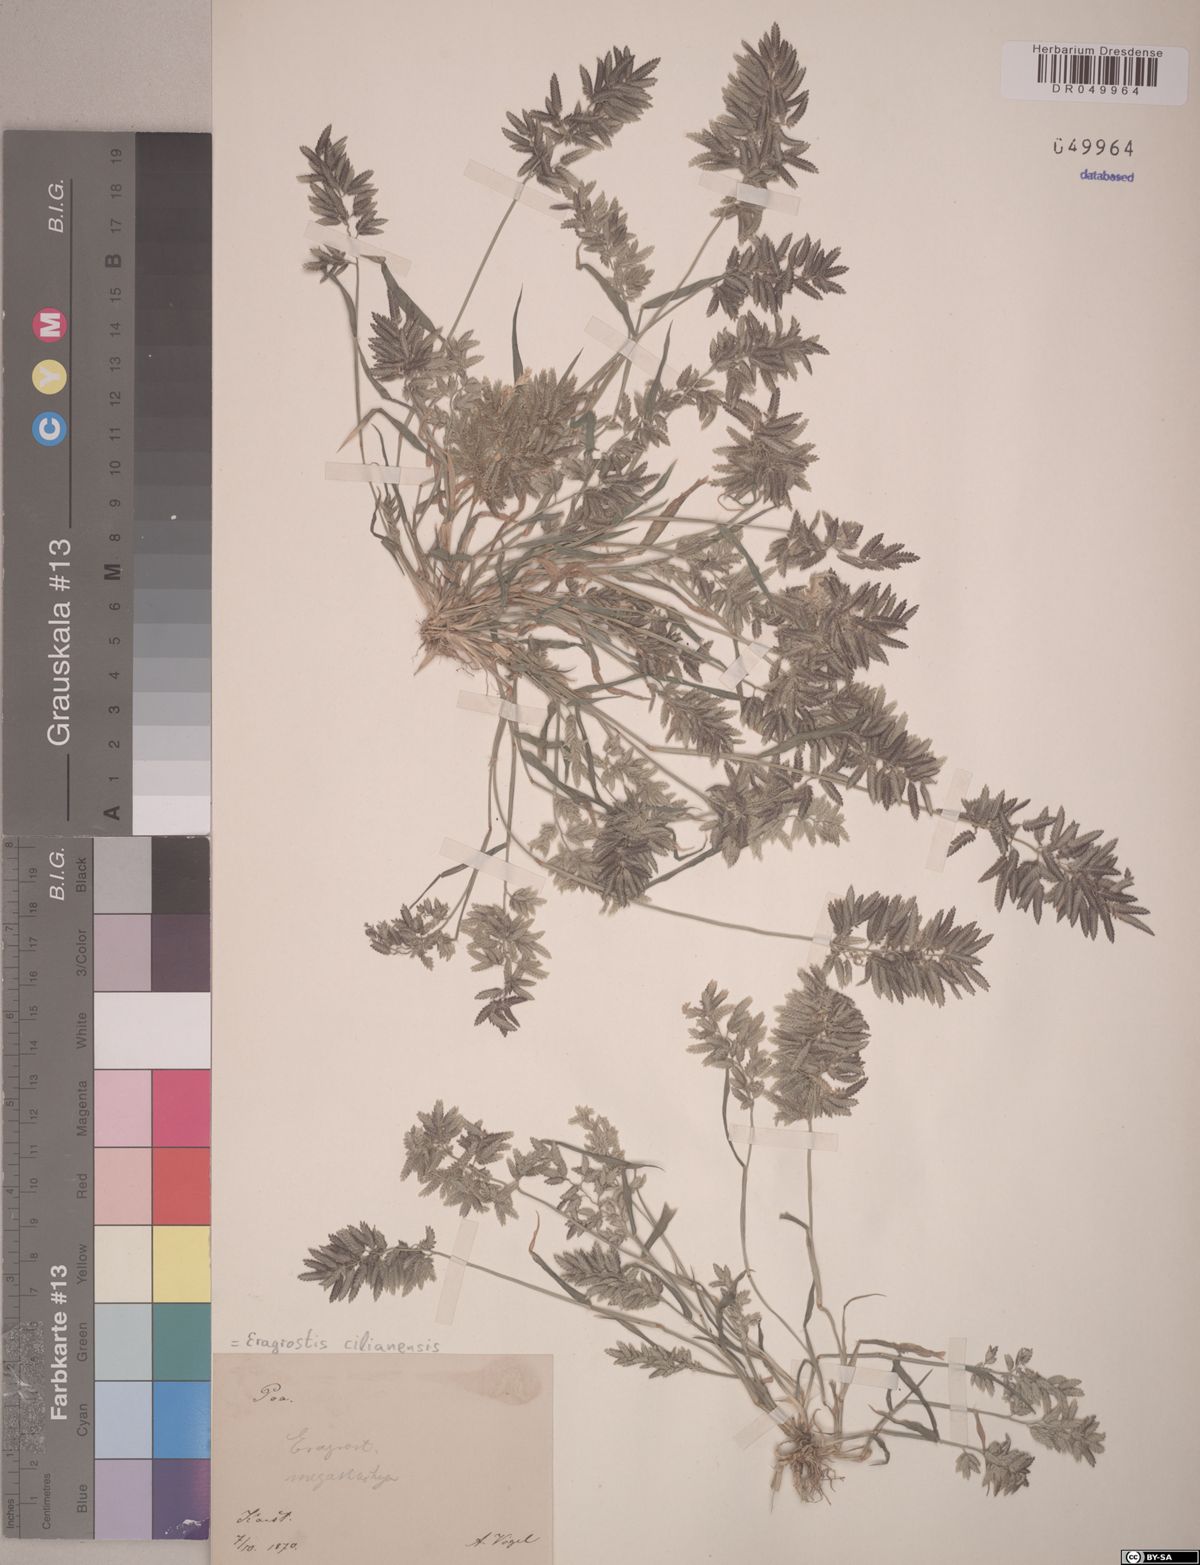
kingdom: Plantae
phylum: Tracheophyta
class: Liliopsida
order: Poales
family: Poaceae
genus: Eragrostis
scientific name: Eragrostis cilianensis
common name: Stinkgrass
